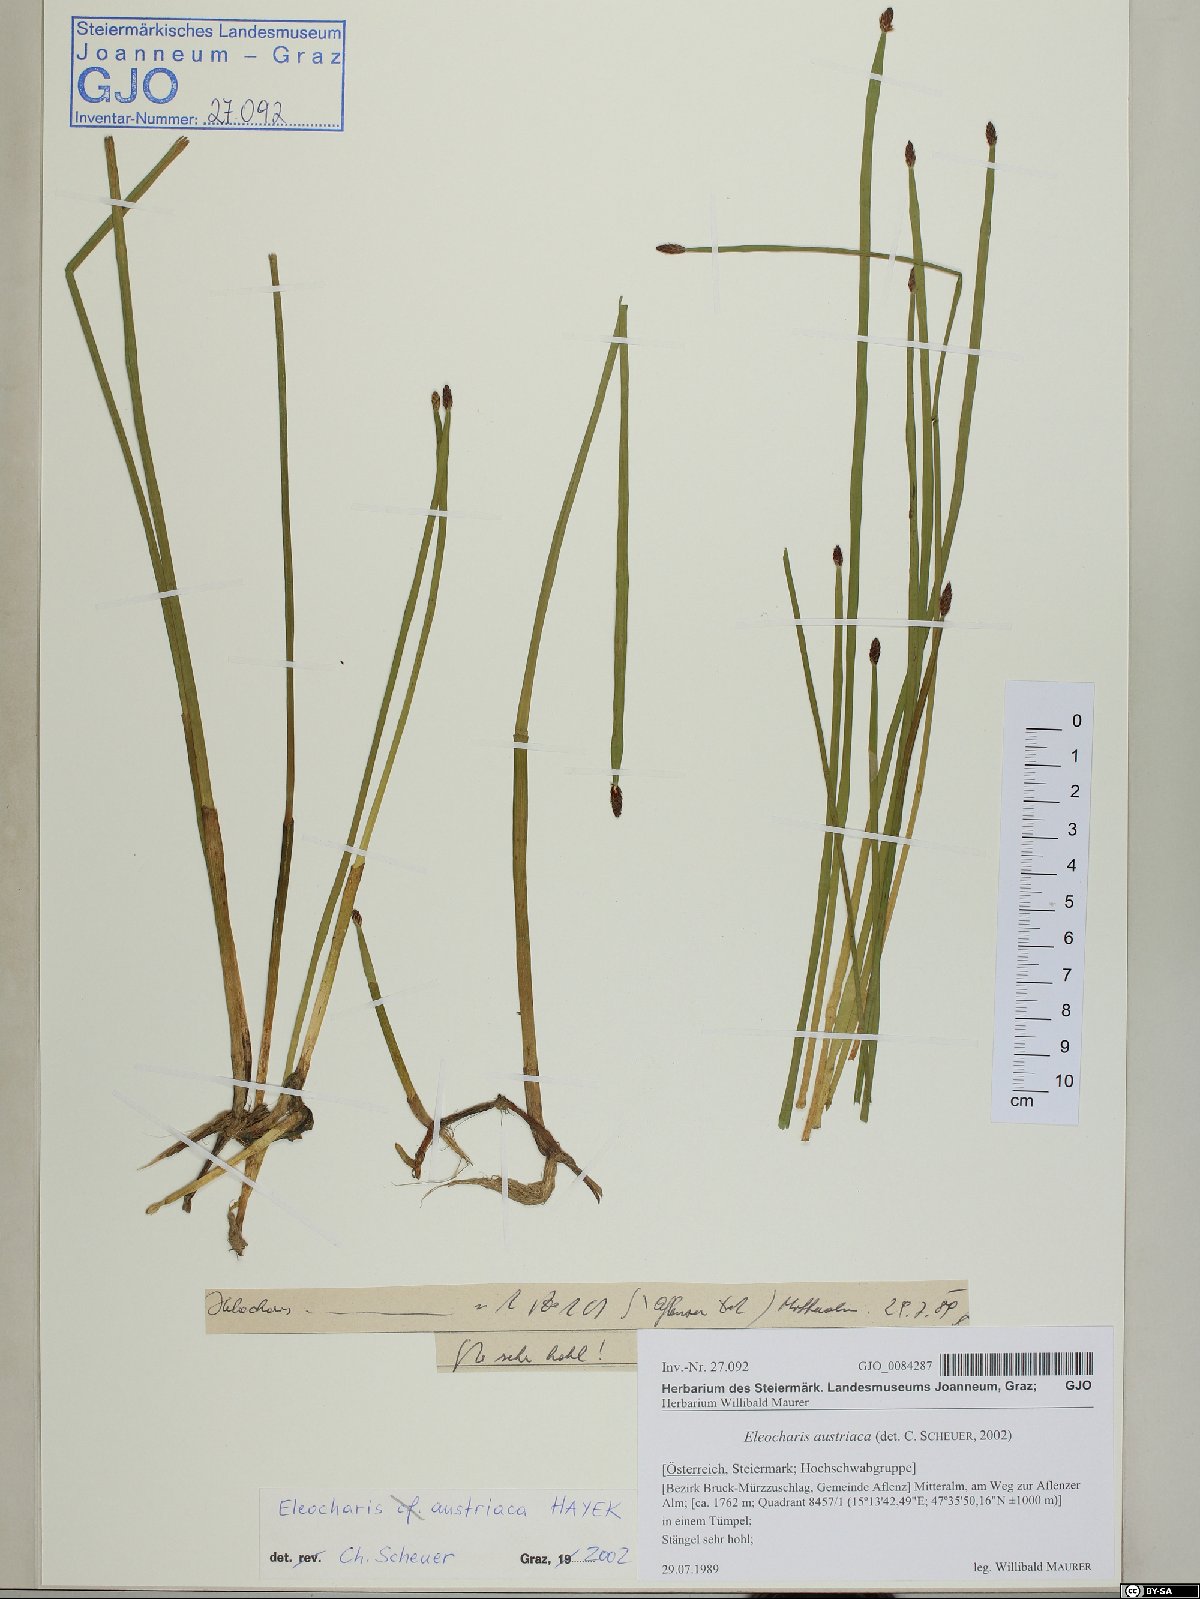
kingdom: Plantae
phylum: Tracheophyta
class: Liliopsida
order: Poales
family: Cyperaceae
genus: Eleocharis
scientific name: Eleocharis mamillata
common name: Northern spike-rush
